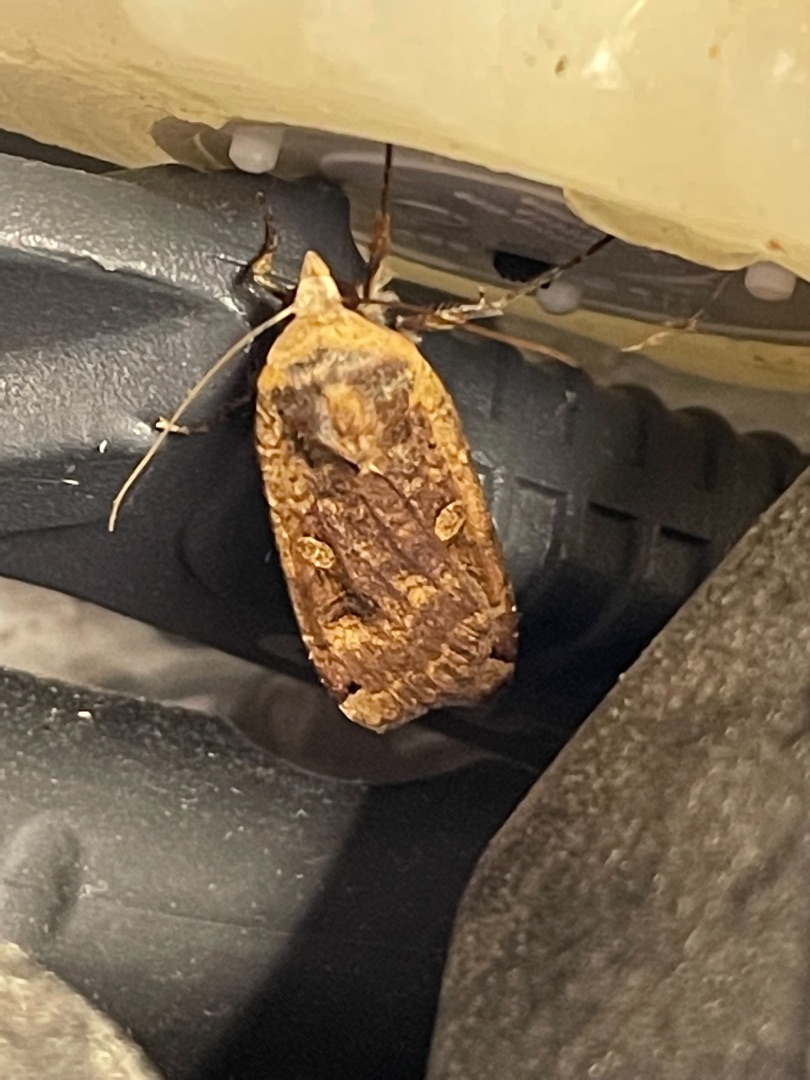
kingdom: Animalia
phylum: Arthropoda
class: Insecta
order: Lepidoptera
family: Noctuidae
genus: Noctua
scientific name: Noctua pronuba
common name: Stor smutugle
